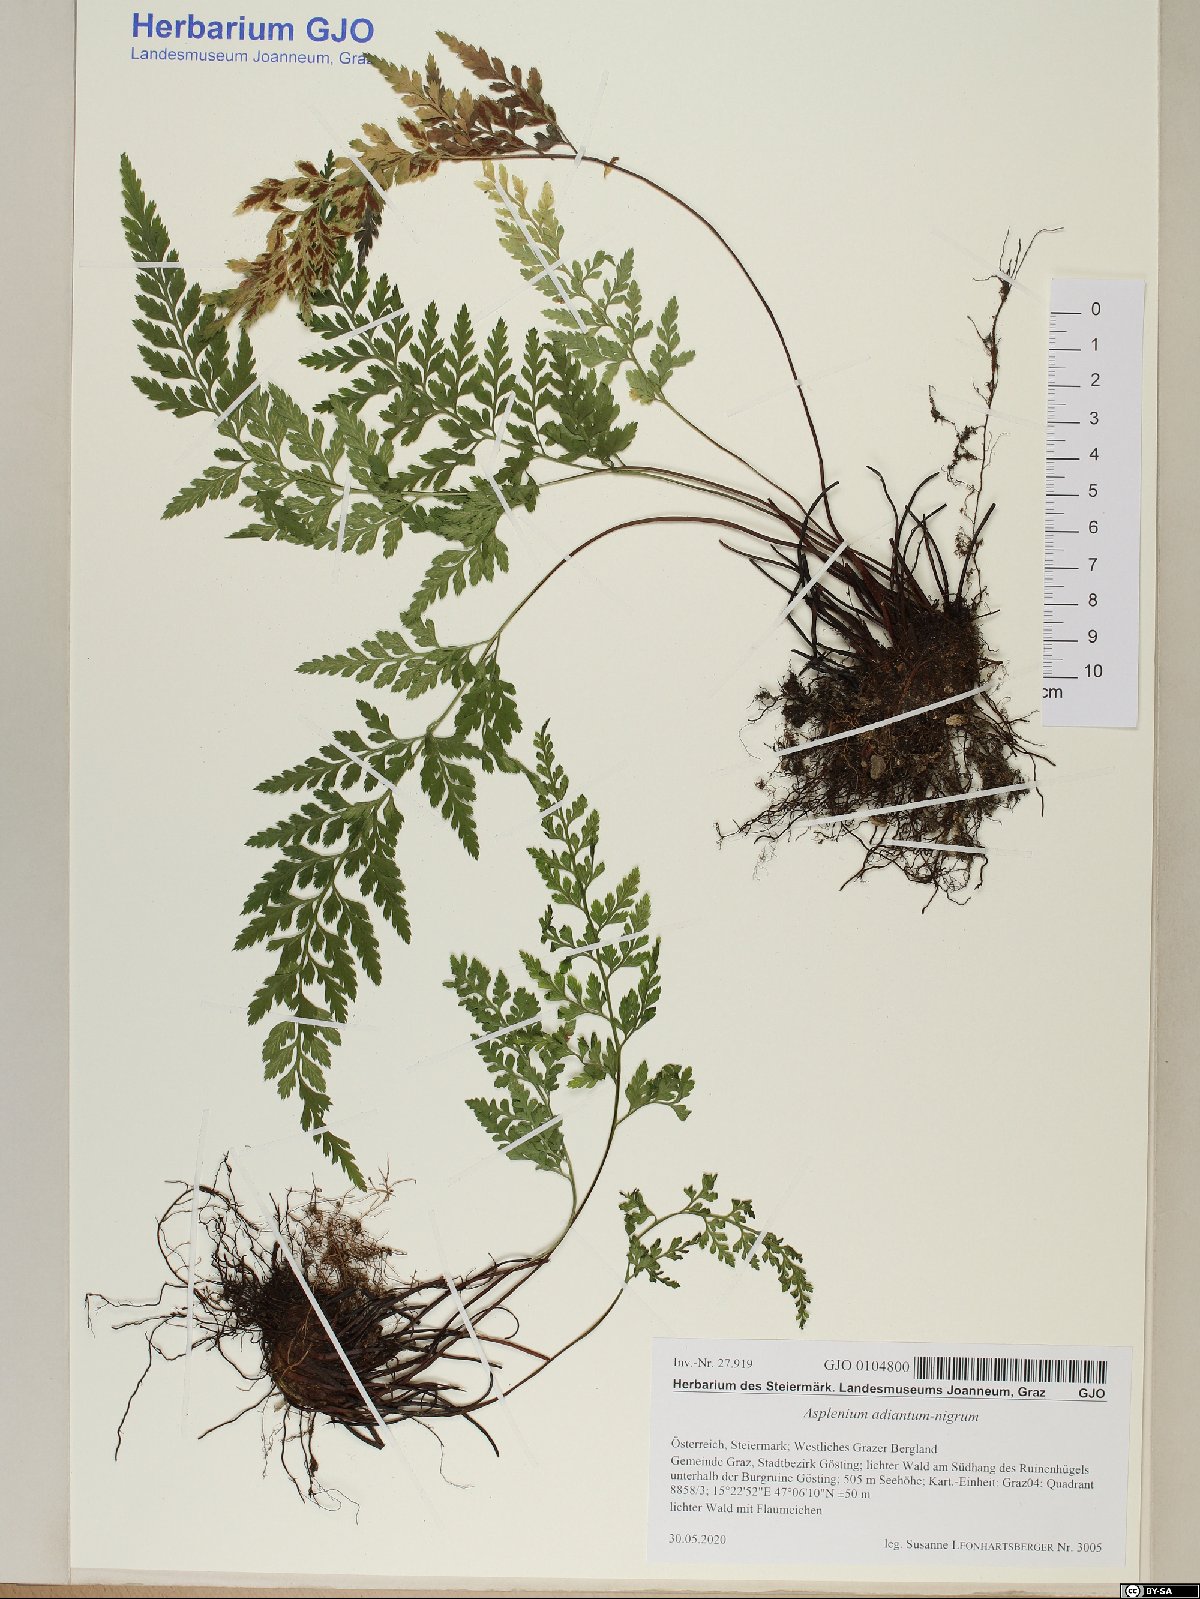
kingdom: Plantae
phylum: Tracheophyta
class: Polypodiopsida
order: Polypodiales
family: Aspleniaceae
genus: Asplenium
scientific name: Asplenium adiantum-nigrum
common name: Black spleenwort
